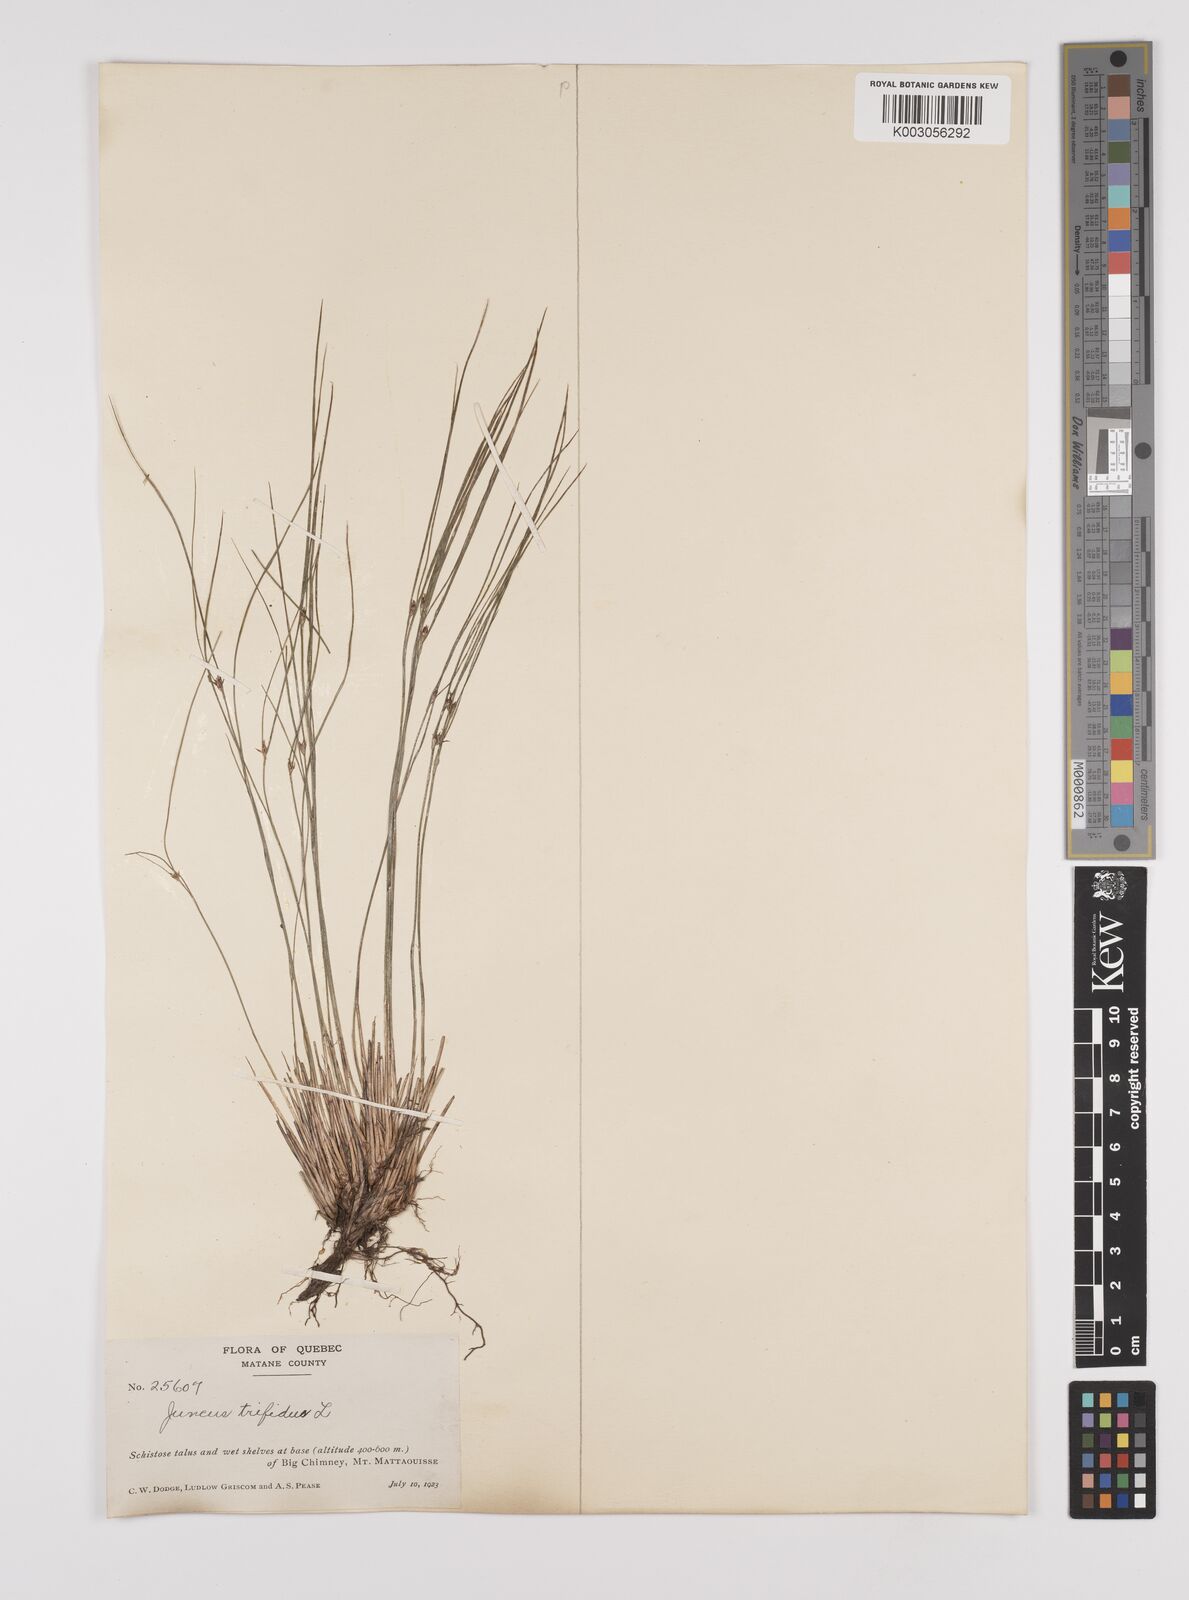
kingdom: Plantae
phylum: Tracheophyta
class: Liliopsida
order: Poales
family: Juncaceae
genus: Oreojuncus
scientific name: Oreojuncus trifidus
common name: Highland rush
